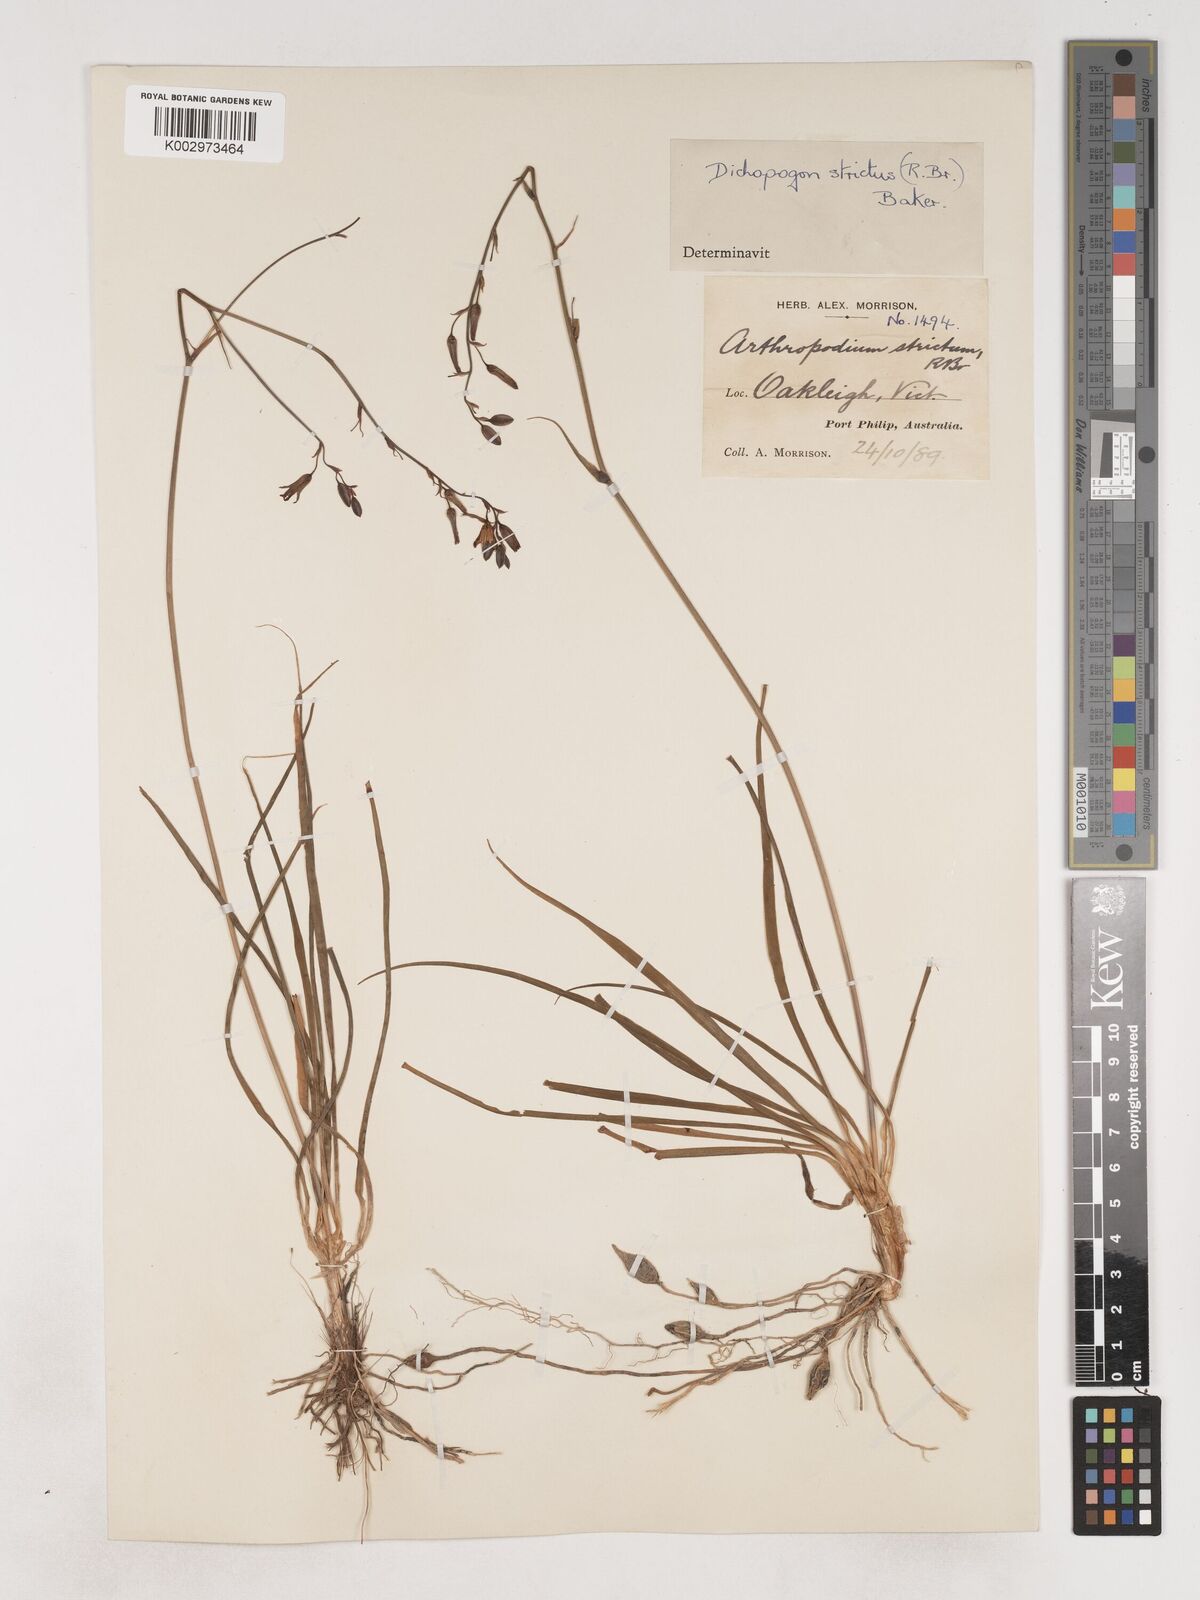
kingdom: Plantae
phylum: Tracheophyta
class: Liliopsida
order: Asparagales
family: Asparagaceae
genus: Arthropodium
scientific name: Arthropodium strictum
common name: Chocolate-lily
